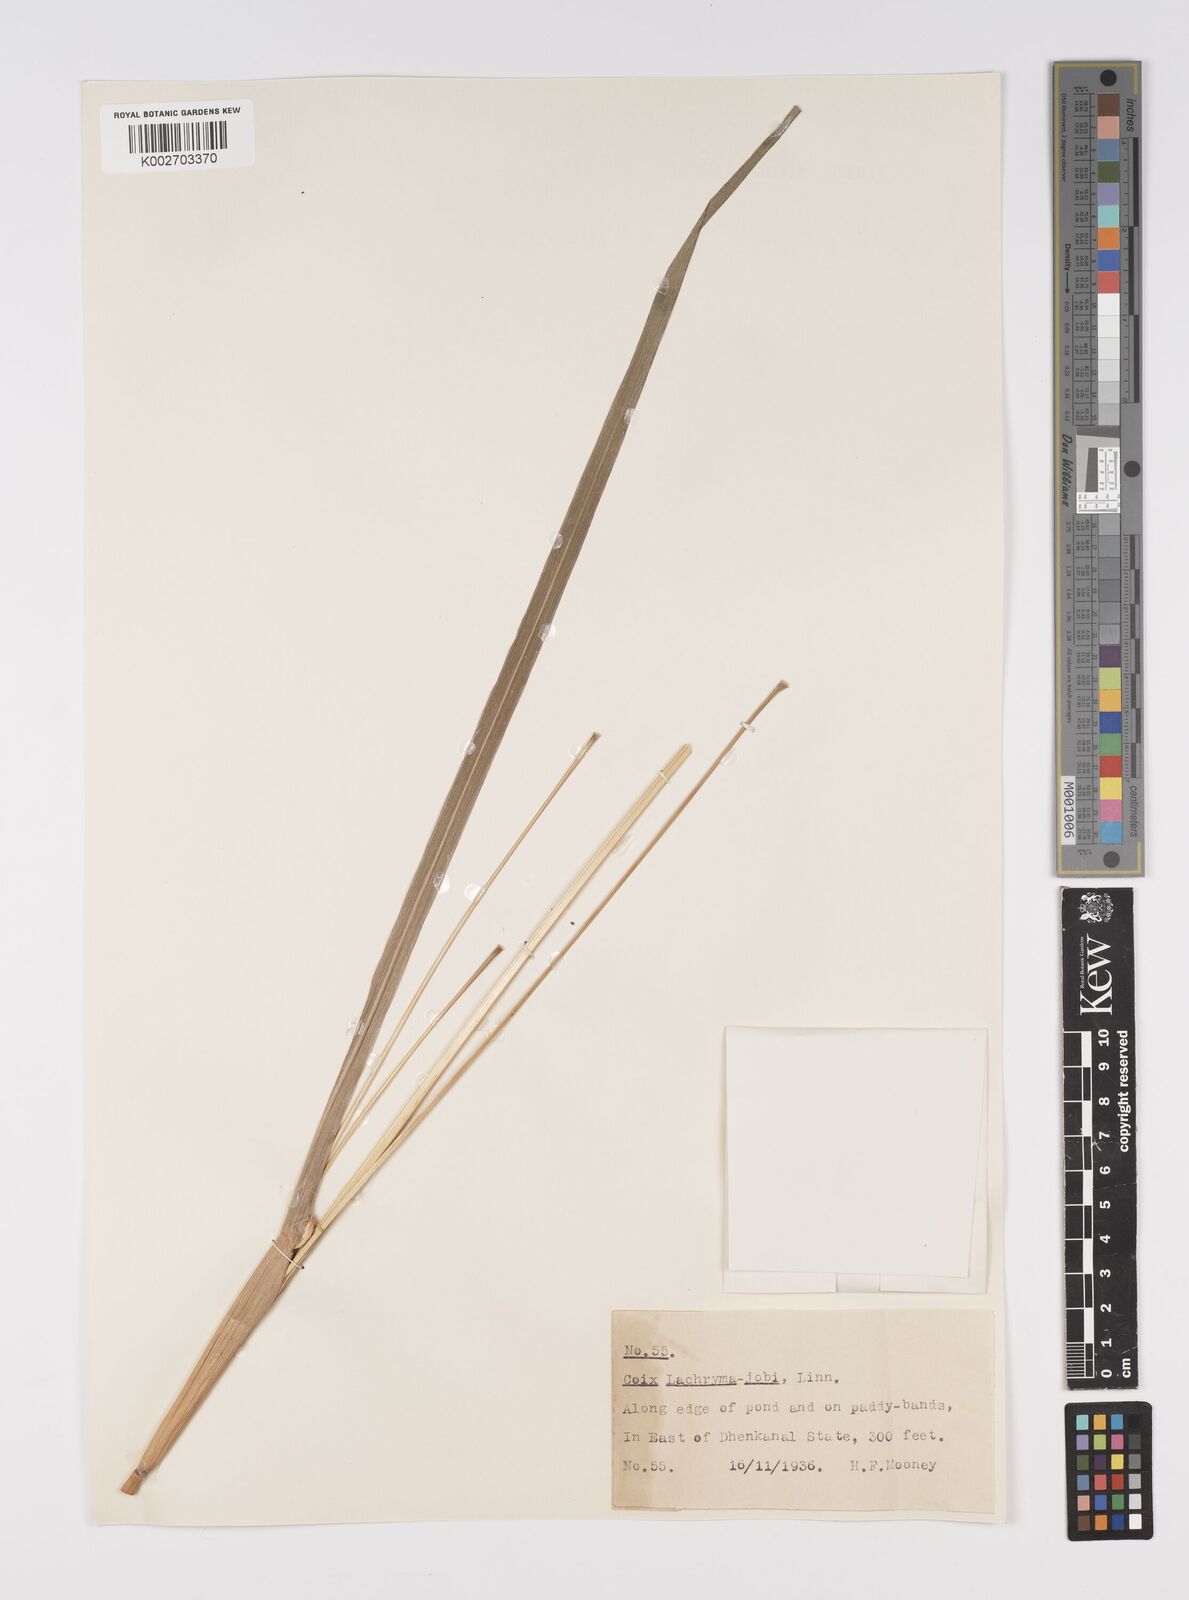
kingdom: Plantae
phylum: Tracheophyta
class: Liliopsida
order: Poales
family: Poaceae
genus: Coix
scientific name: Coix lacryma-jobi
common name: Job's tears
